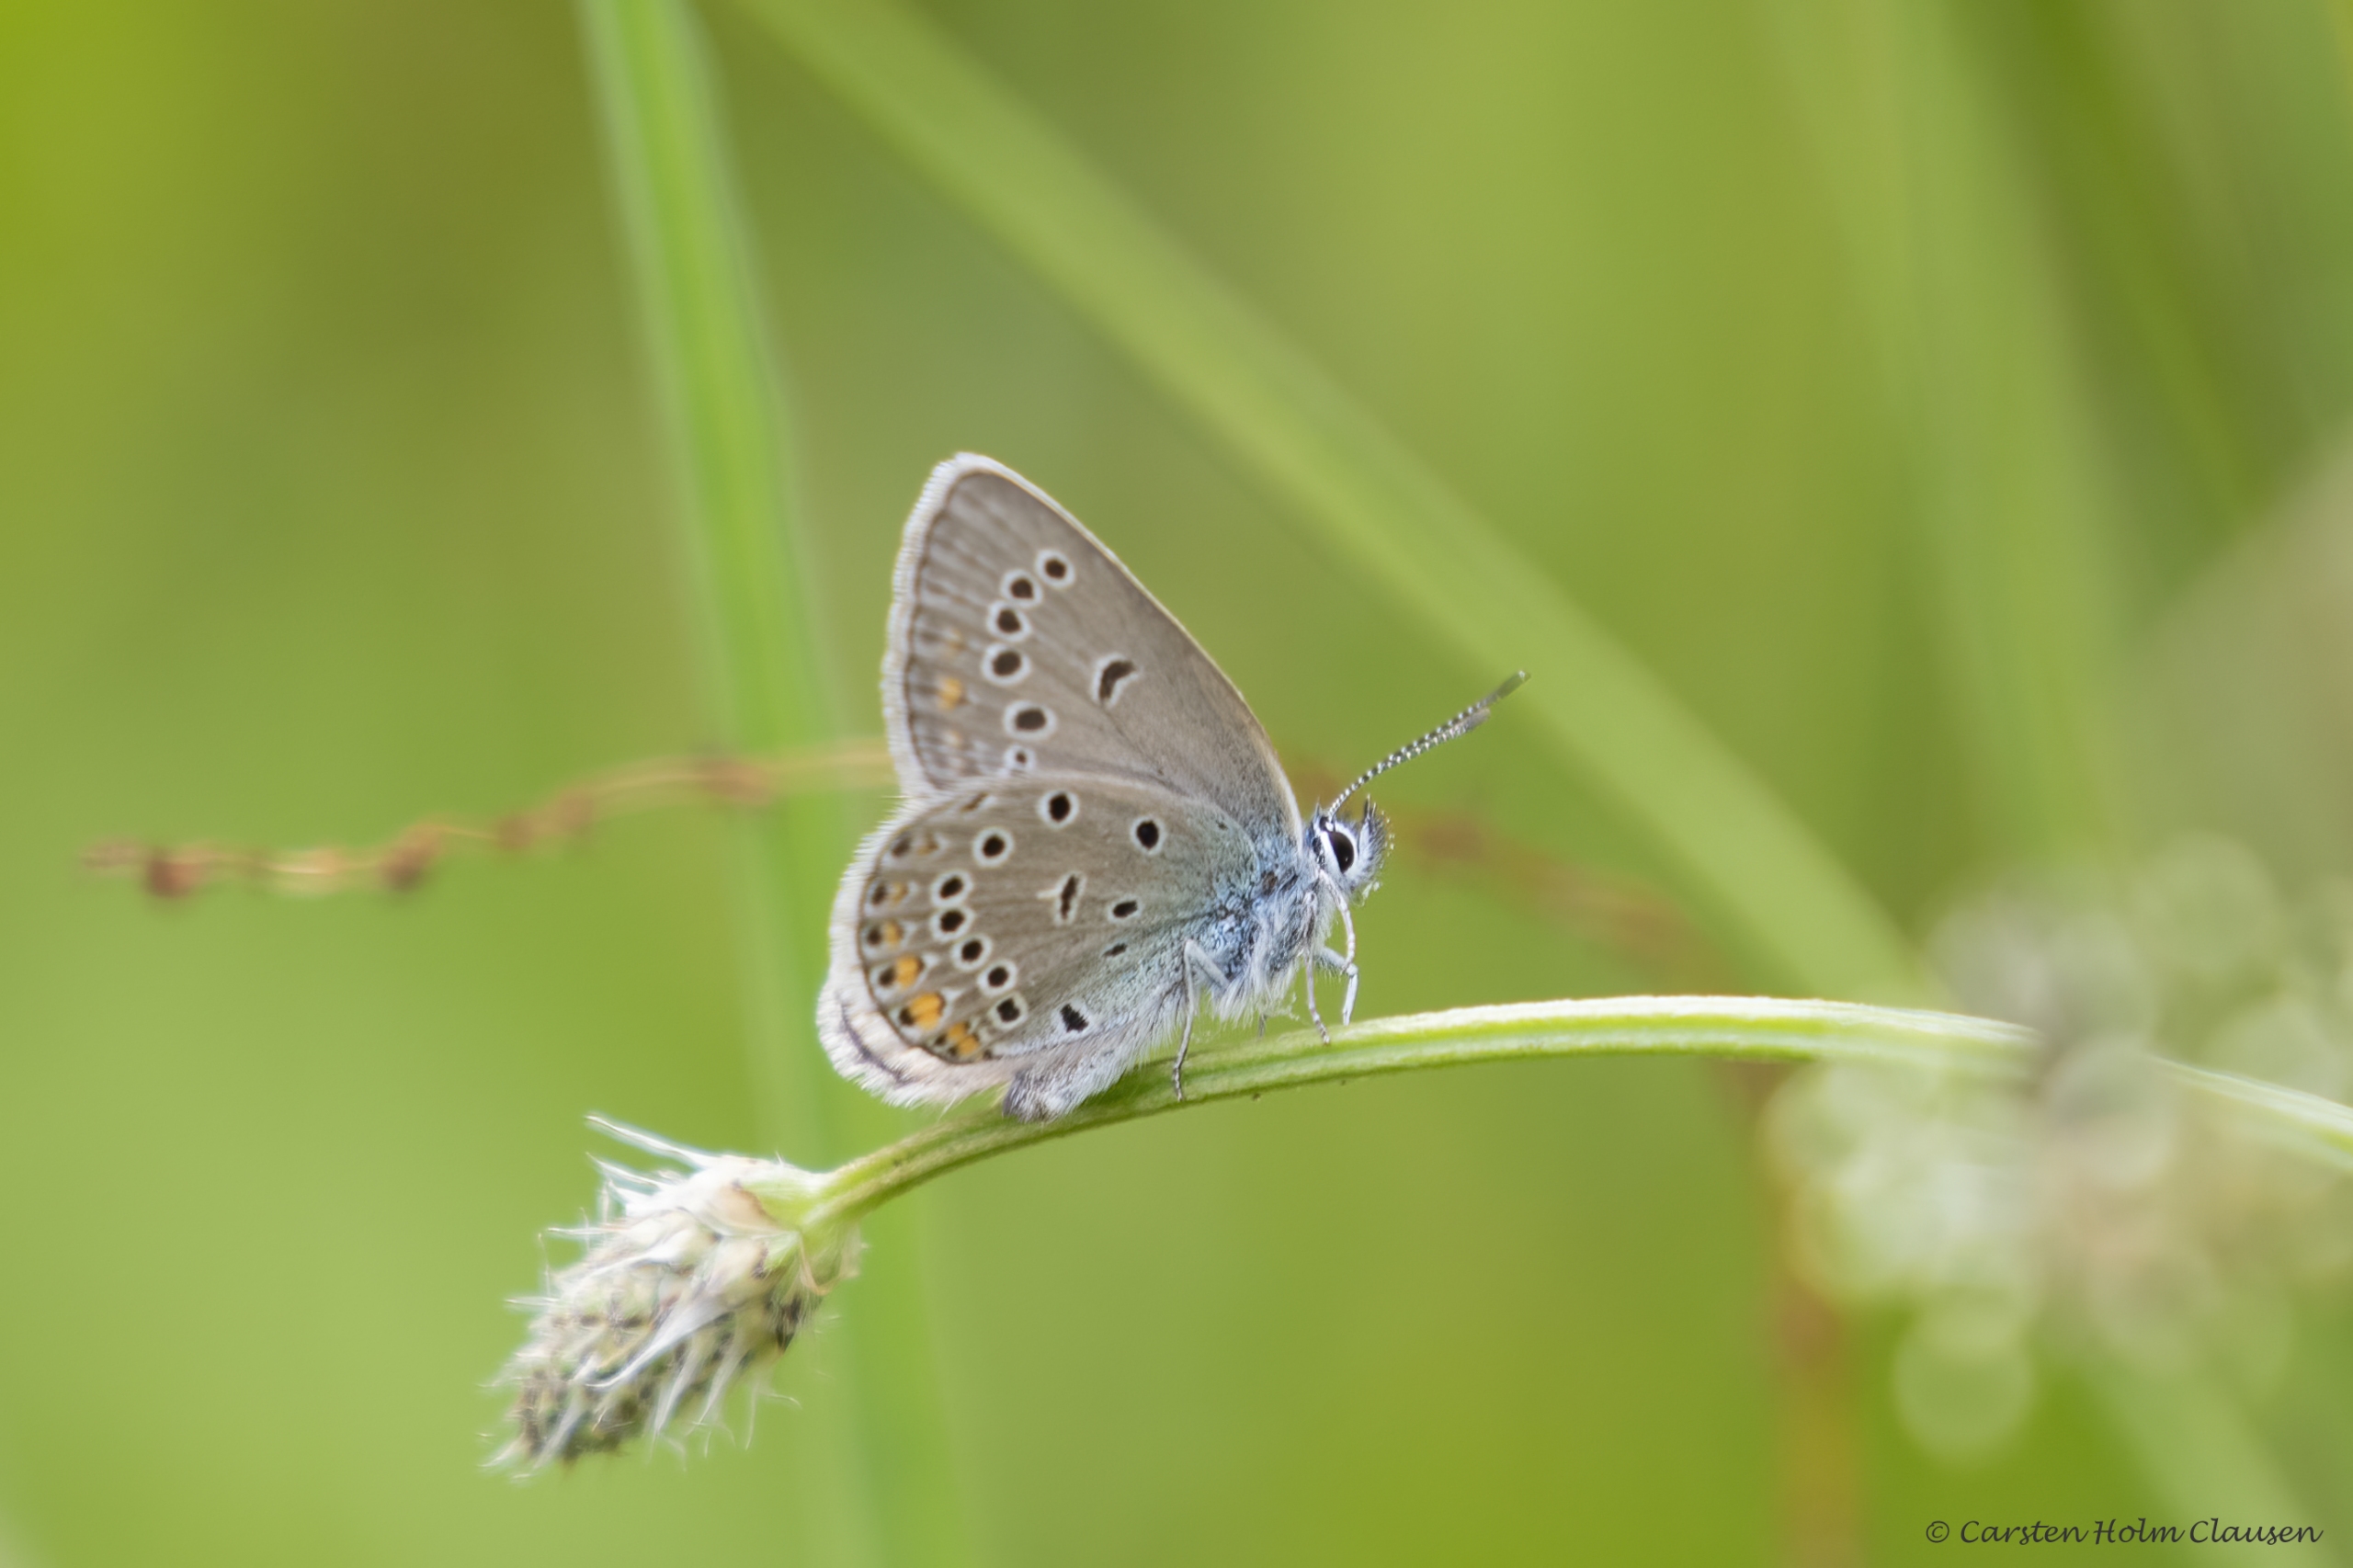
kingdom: Animalia
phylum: Arthropoda
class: Insecta
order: Lepidoptera
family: Lycaenidae
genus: Plebejus
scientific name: Plebejus amanda
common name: Isblåfugl
